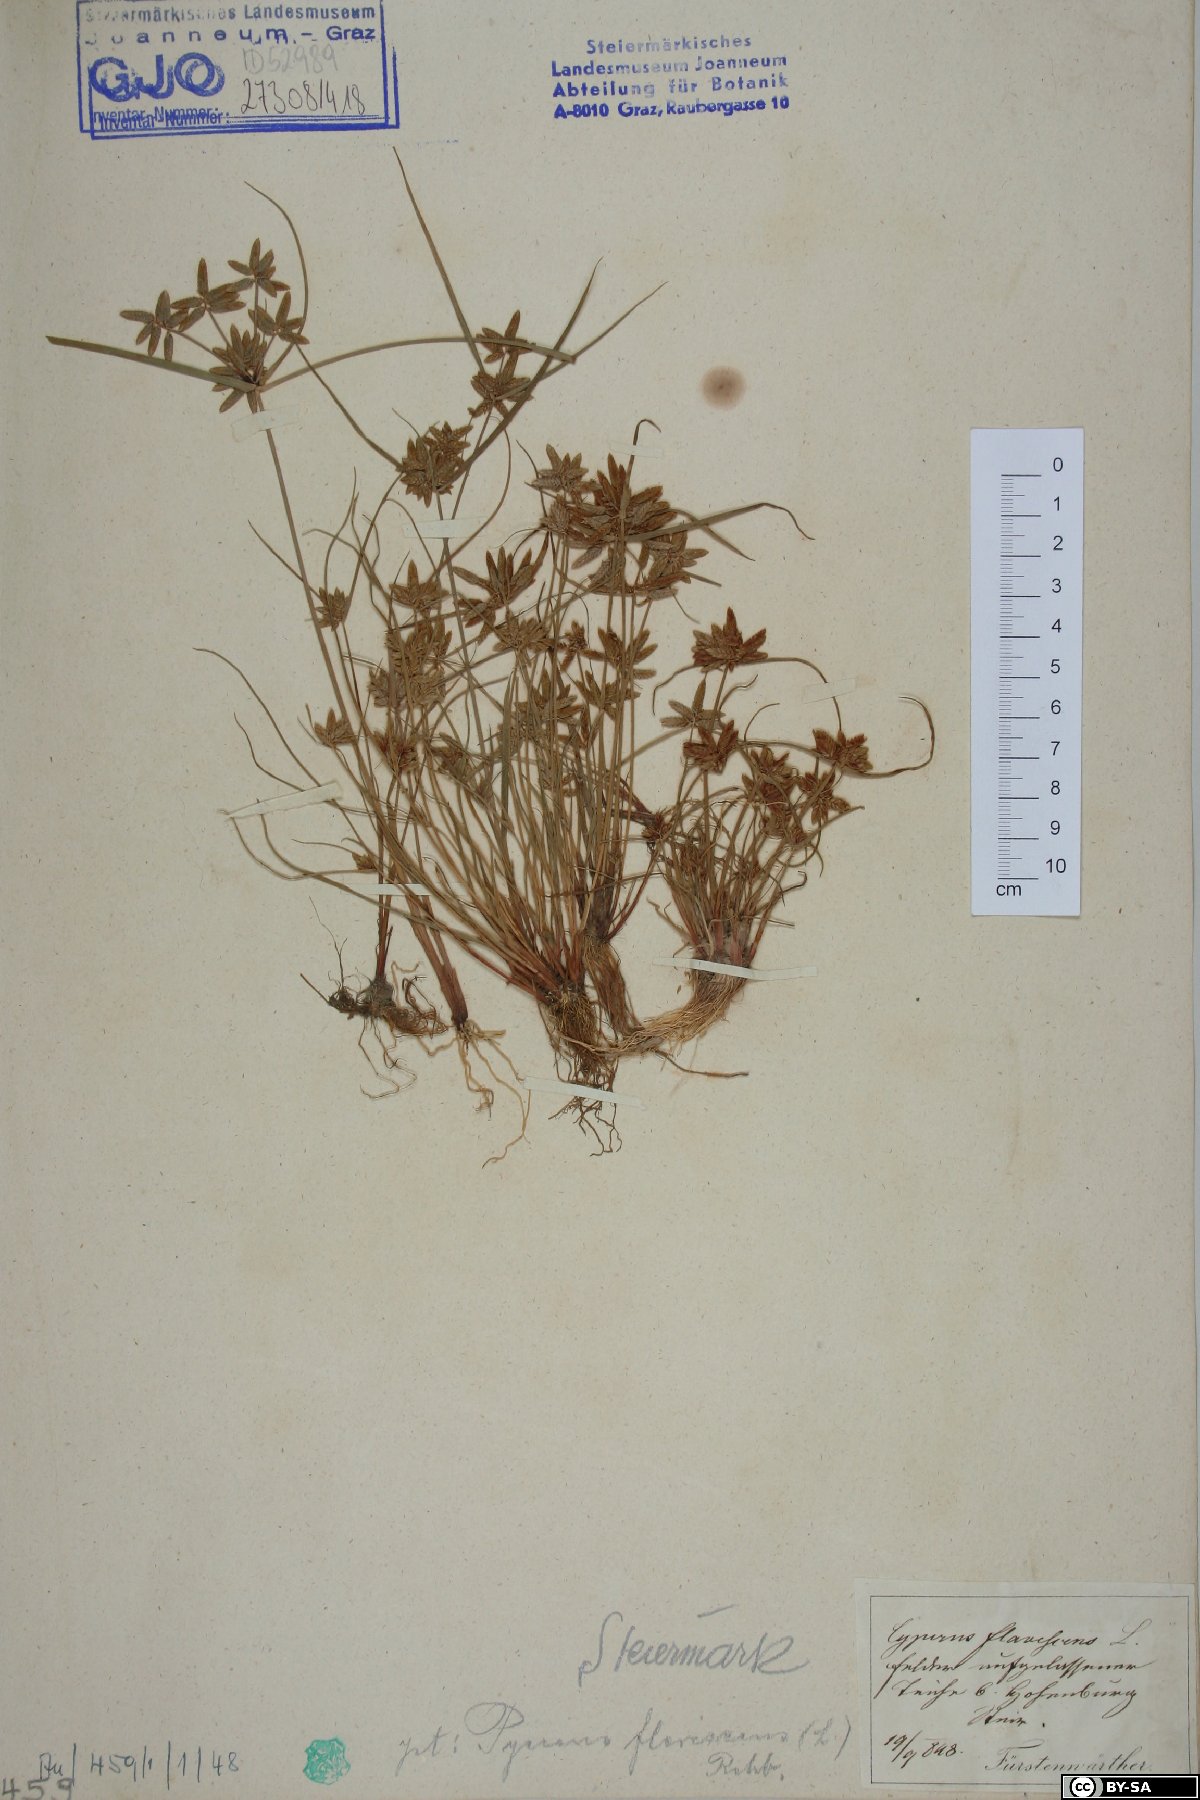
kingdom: Plantae
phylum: Tracheophyta
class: Liliopsida
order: Poales
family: Cyperaceae
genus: Cyperus
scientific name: Cyperus flavescens
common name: Yellow galingale
